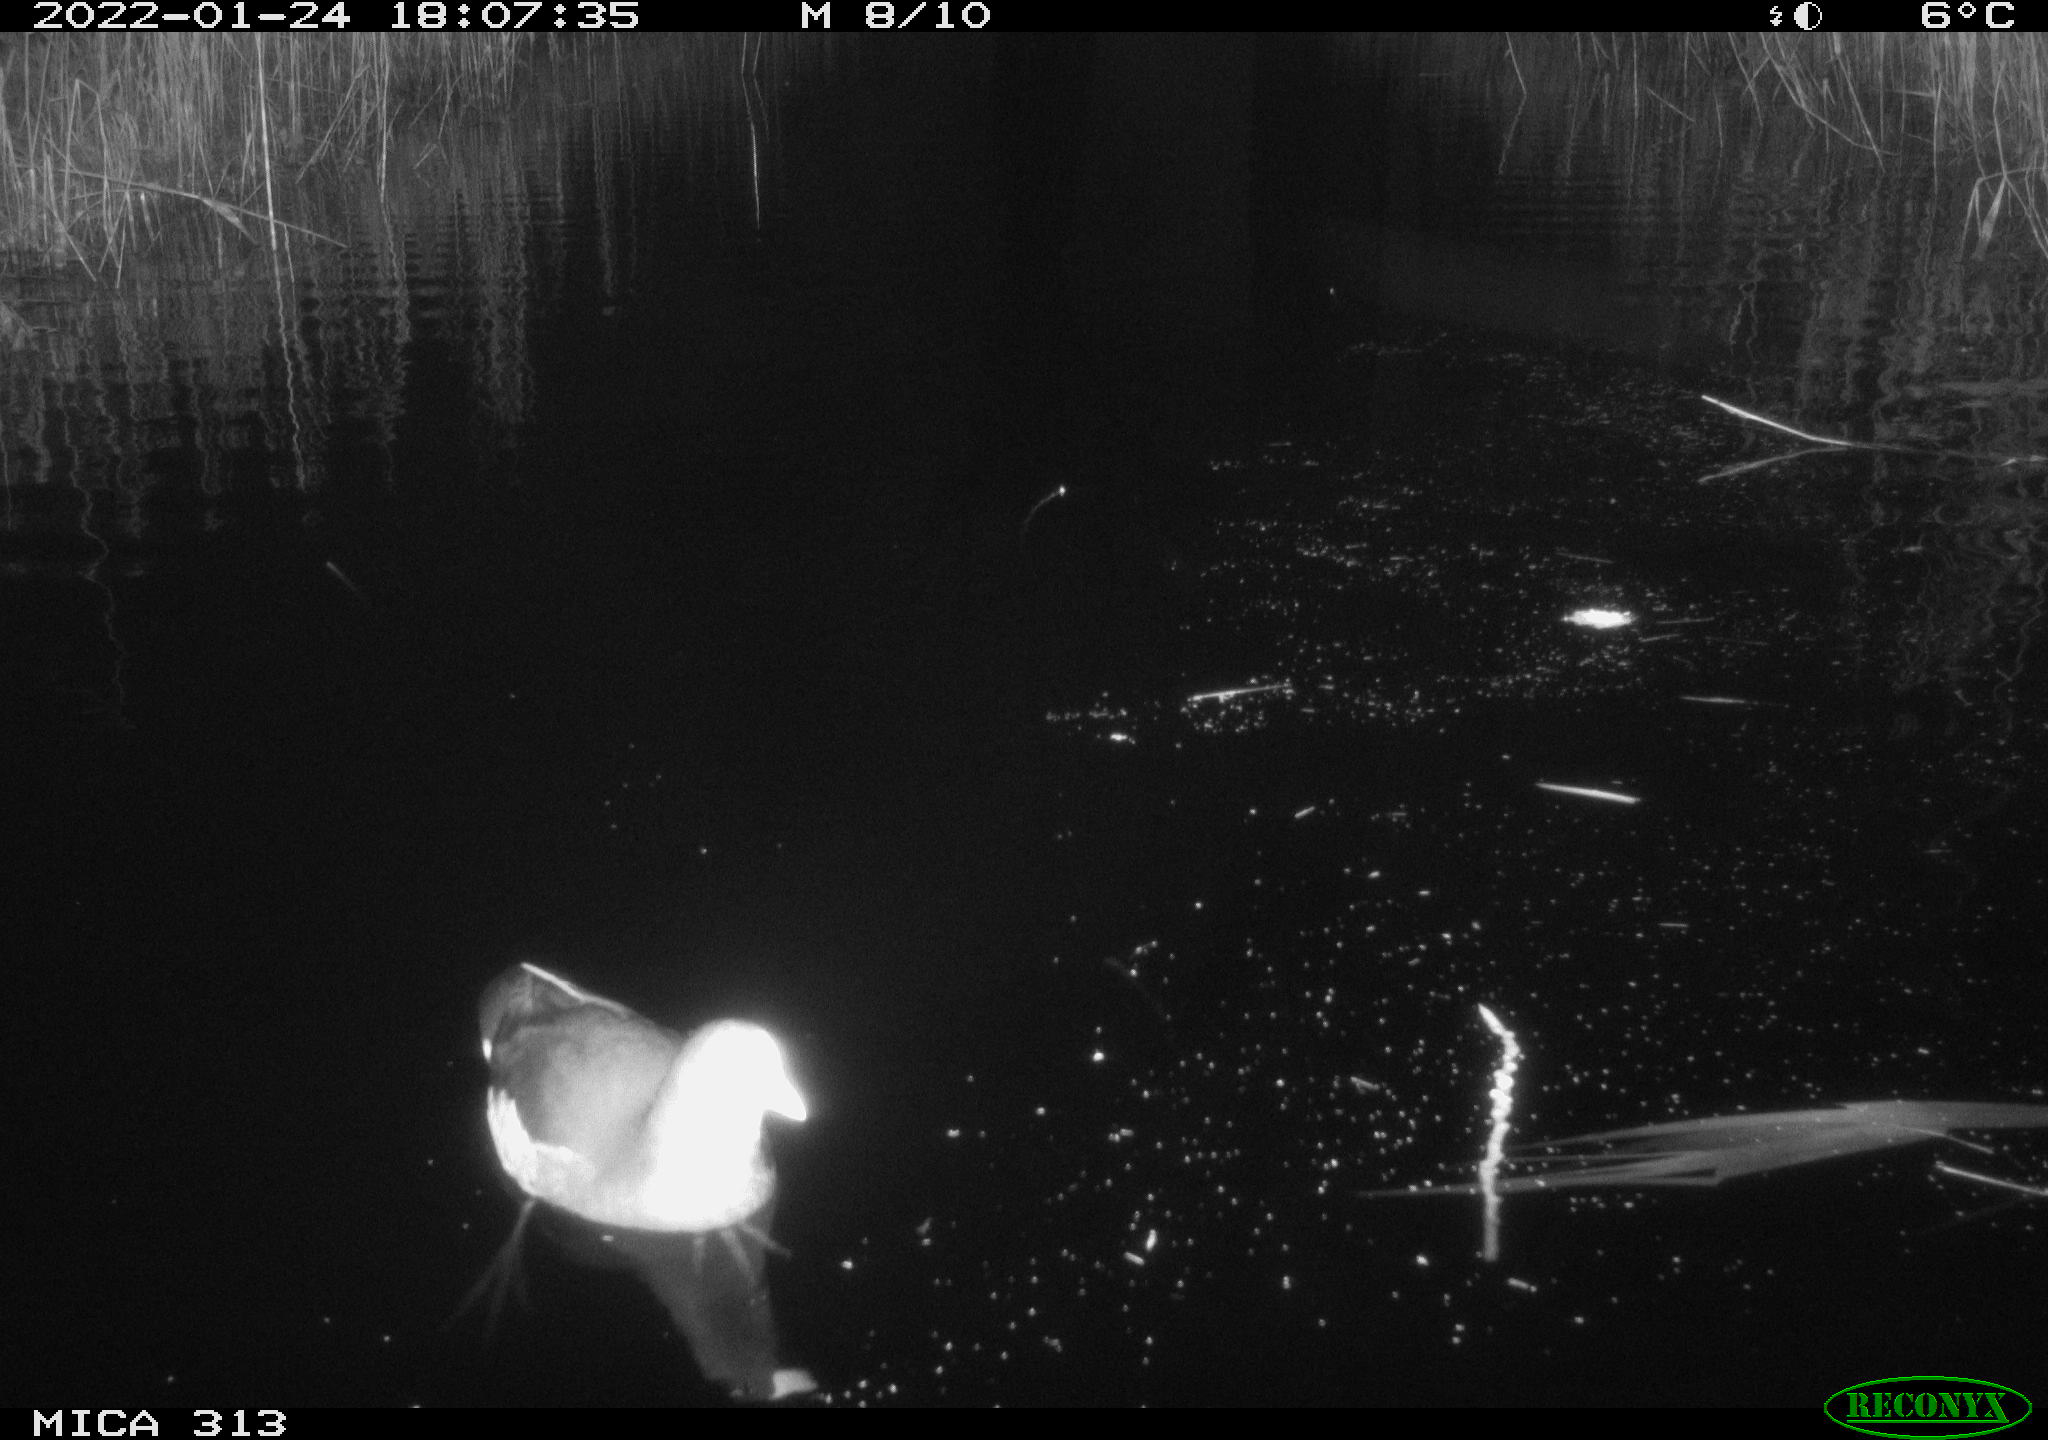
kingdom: Animalia
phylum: Chordata
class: Aves
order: Anseriformes
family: Anatidae
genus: Anas
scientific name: Anas
